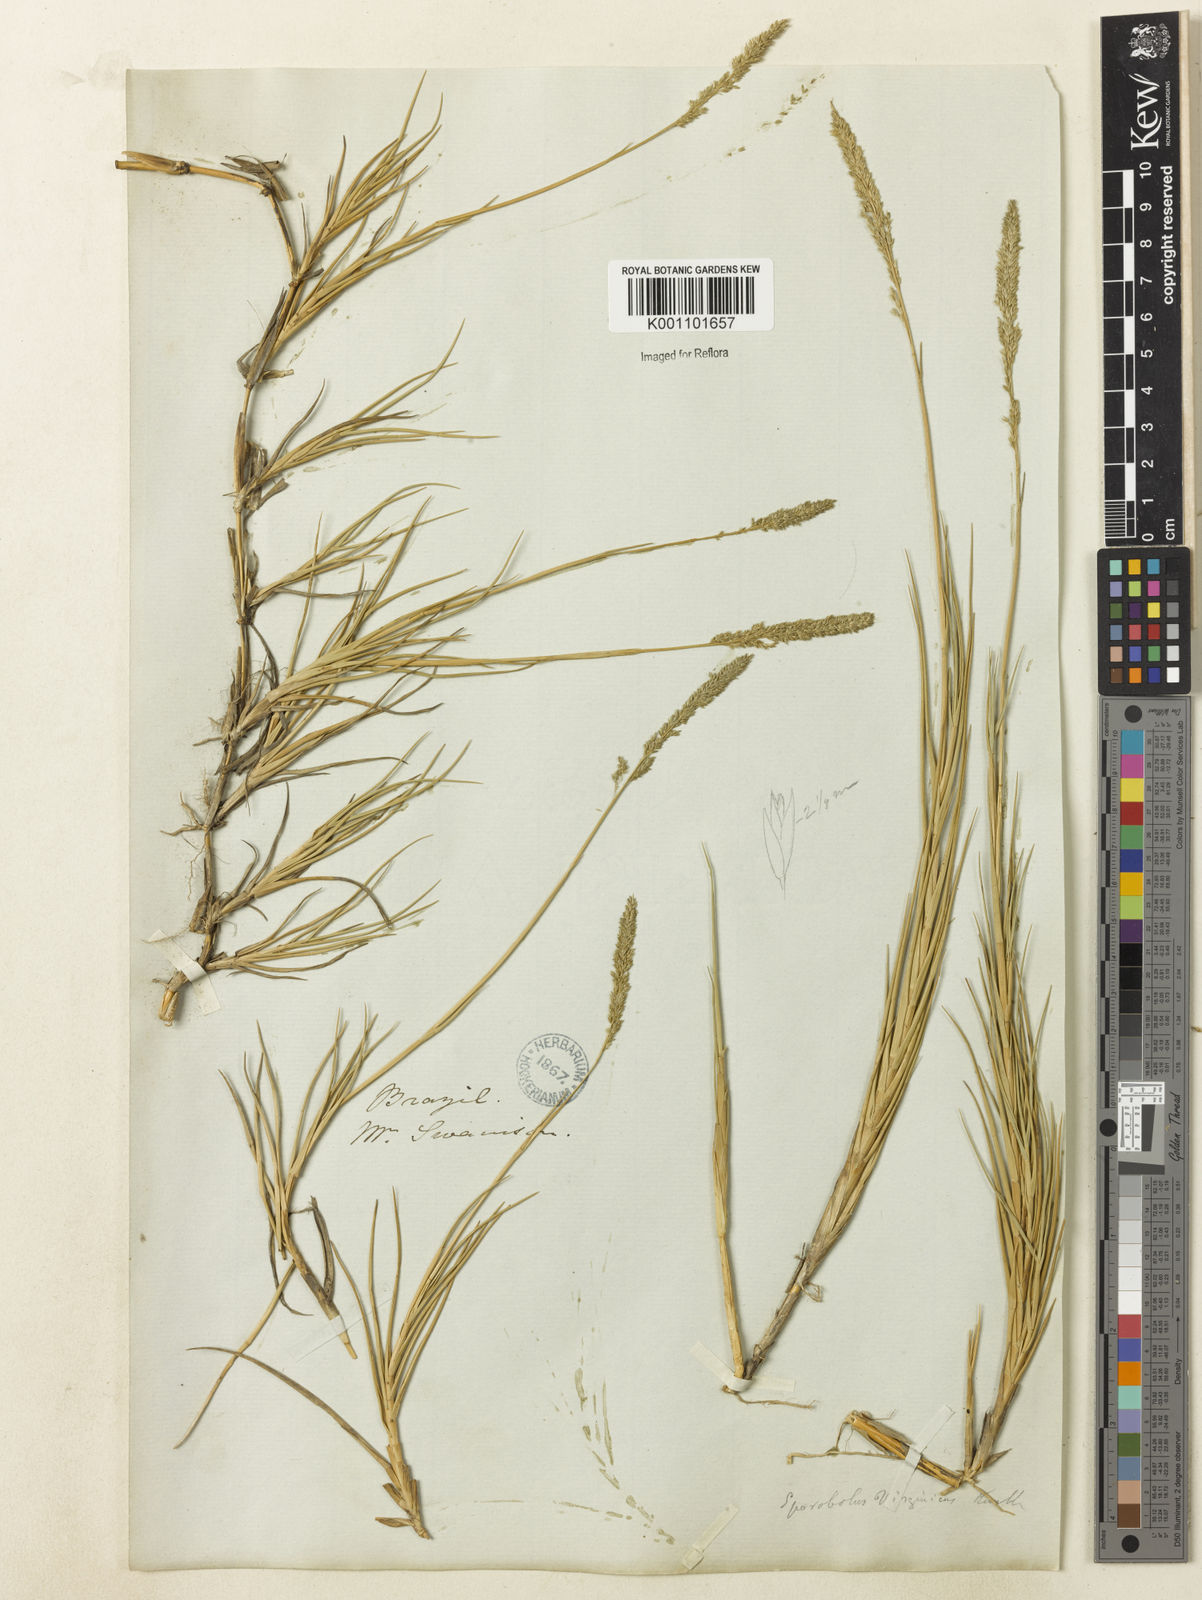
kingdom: Plantae
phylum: Tracheophyta
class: Liliopsida
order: Poales
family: Poaceae
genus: Sporobolus
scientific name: Sporobolus virginicus
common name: Beach dropseed
